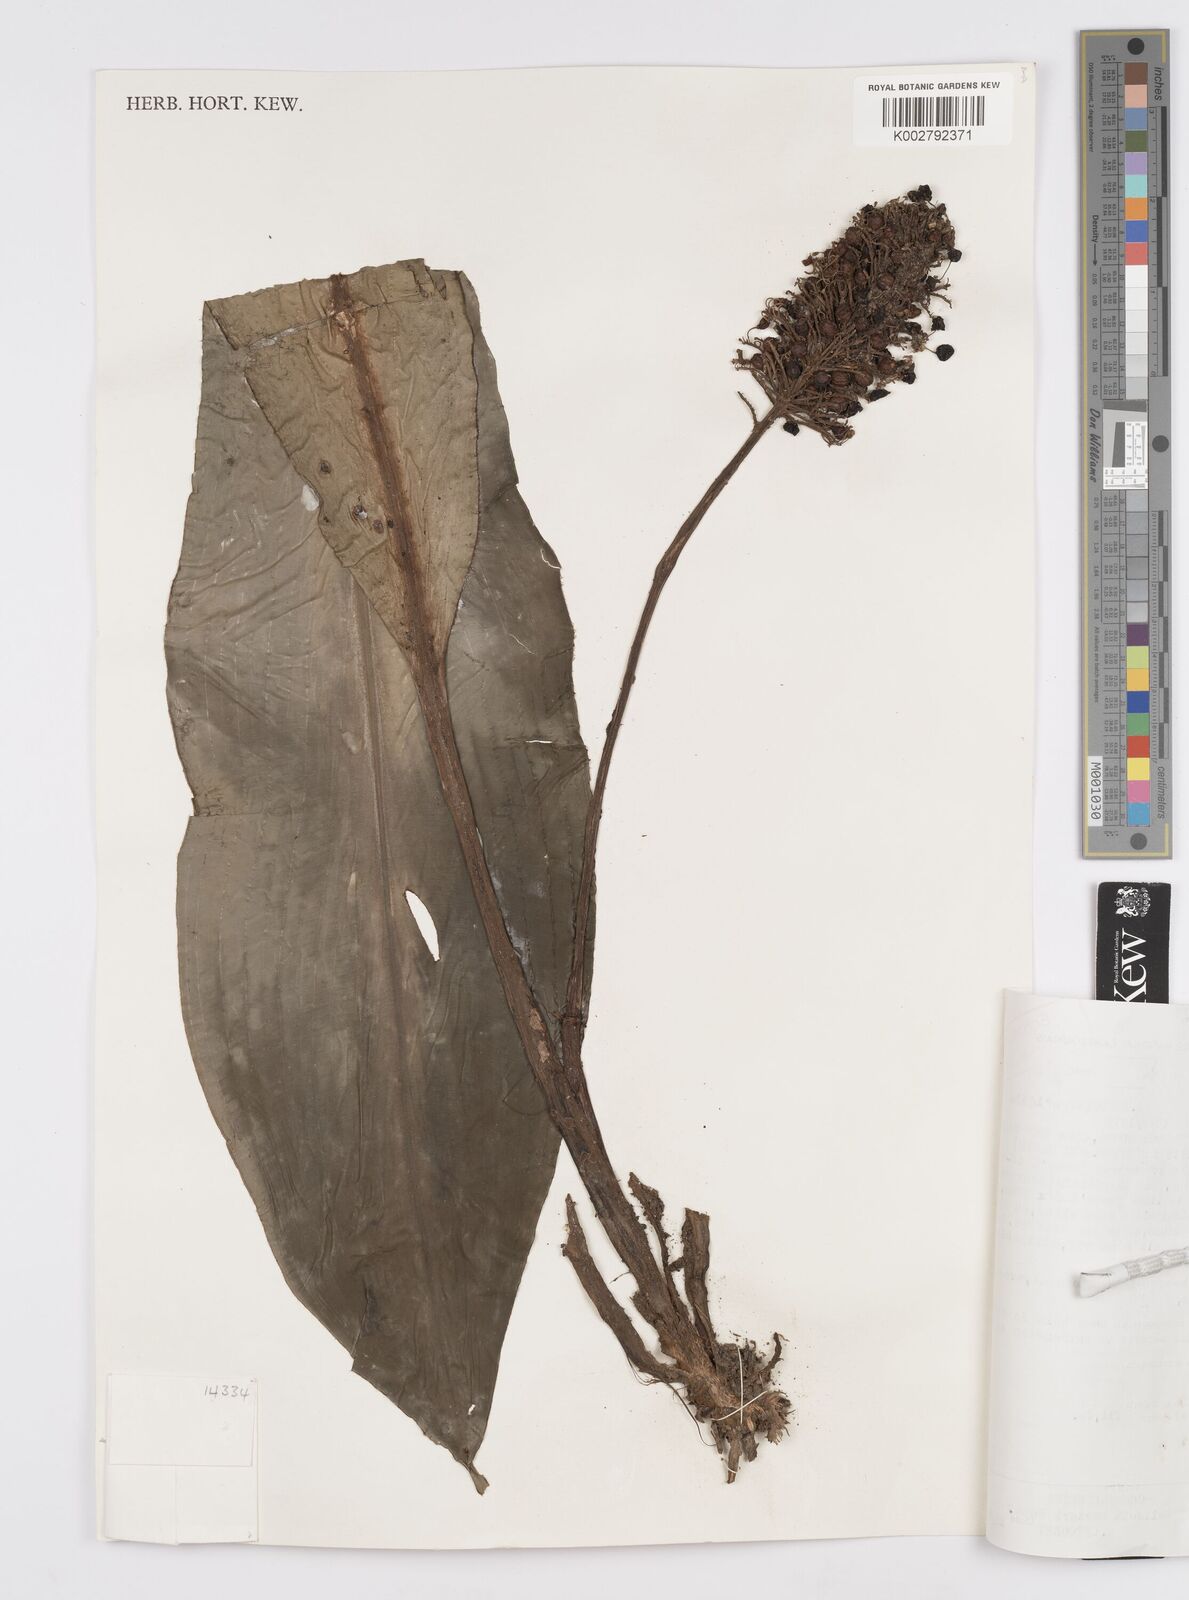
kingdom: Plantae
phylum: Tracheophyta
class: Liliopsida
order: Commelinales
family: Commelinaceae
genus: Palisota
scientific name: Palisota barteri
